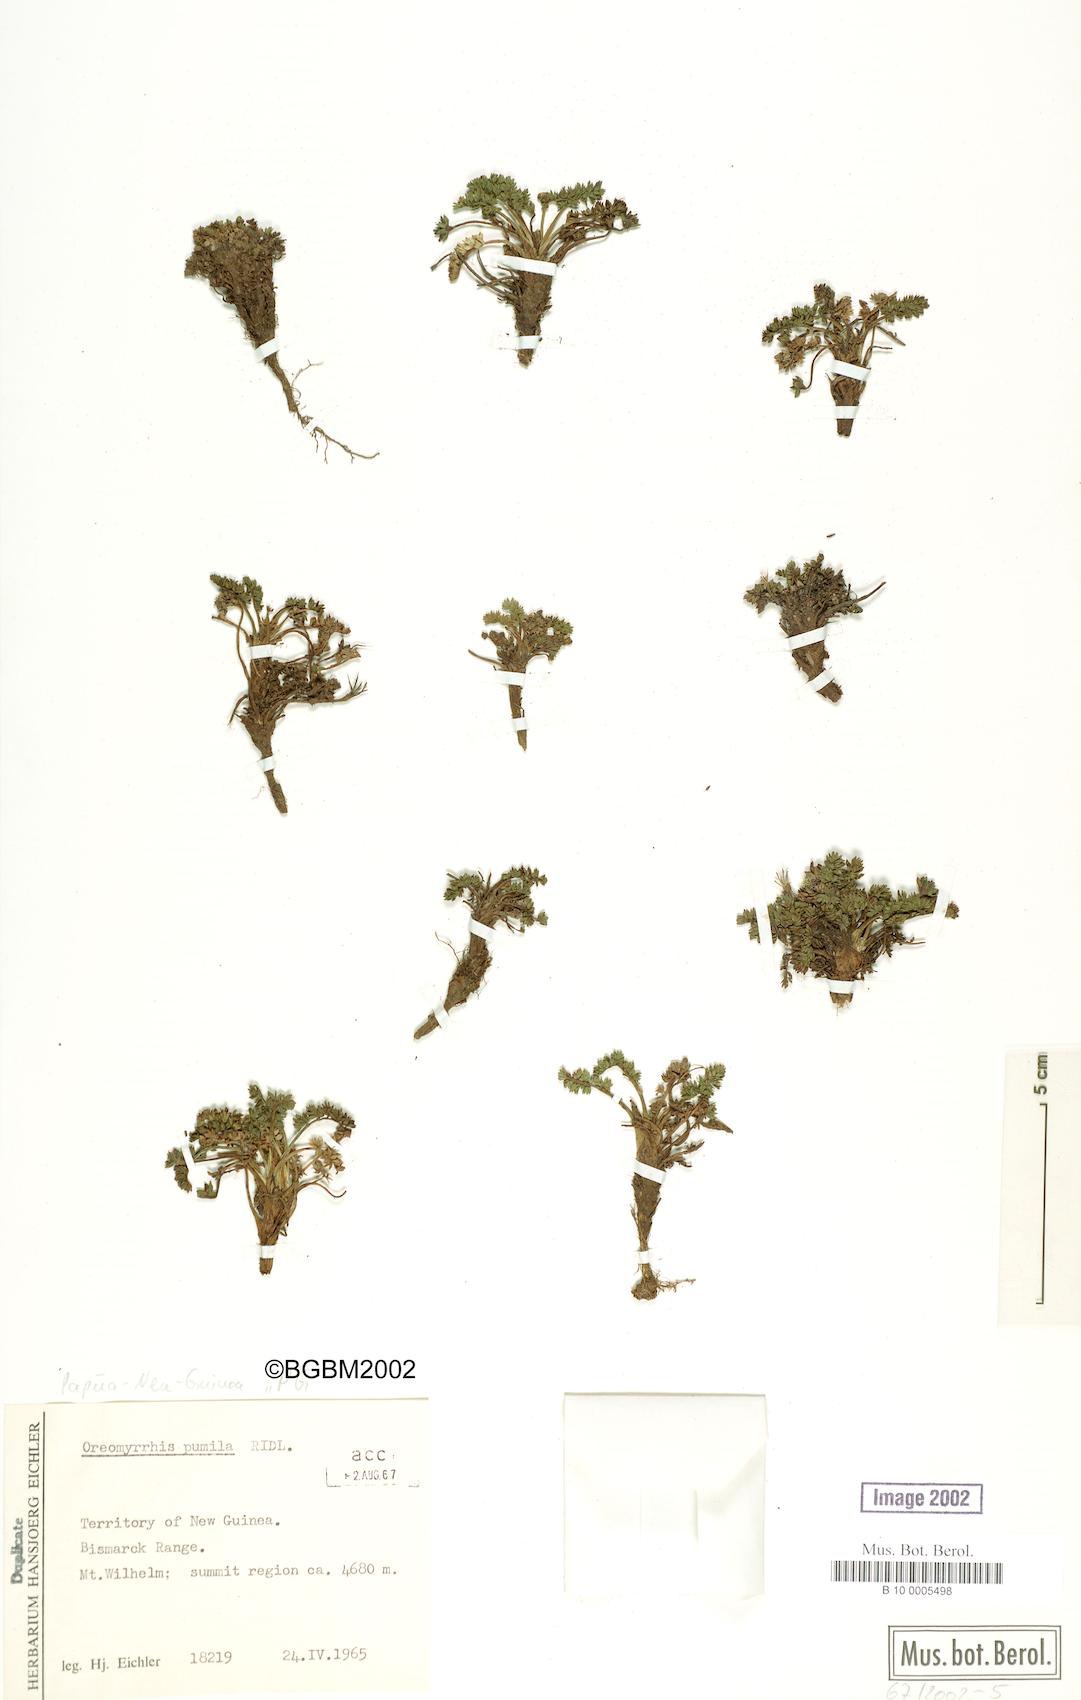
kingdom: Plantae
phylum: Tracheophyta
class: Magnoliopsida
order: Apiales
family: Apiaceae
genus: Chaerophyllum
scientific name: Chaerophyllum buwaldianum
